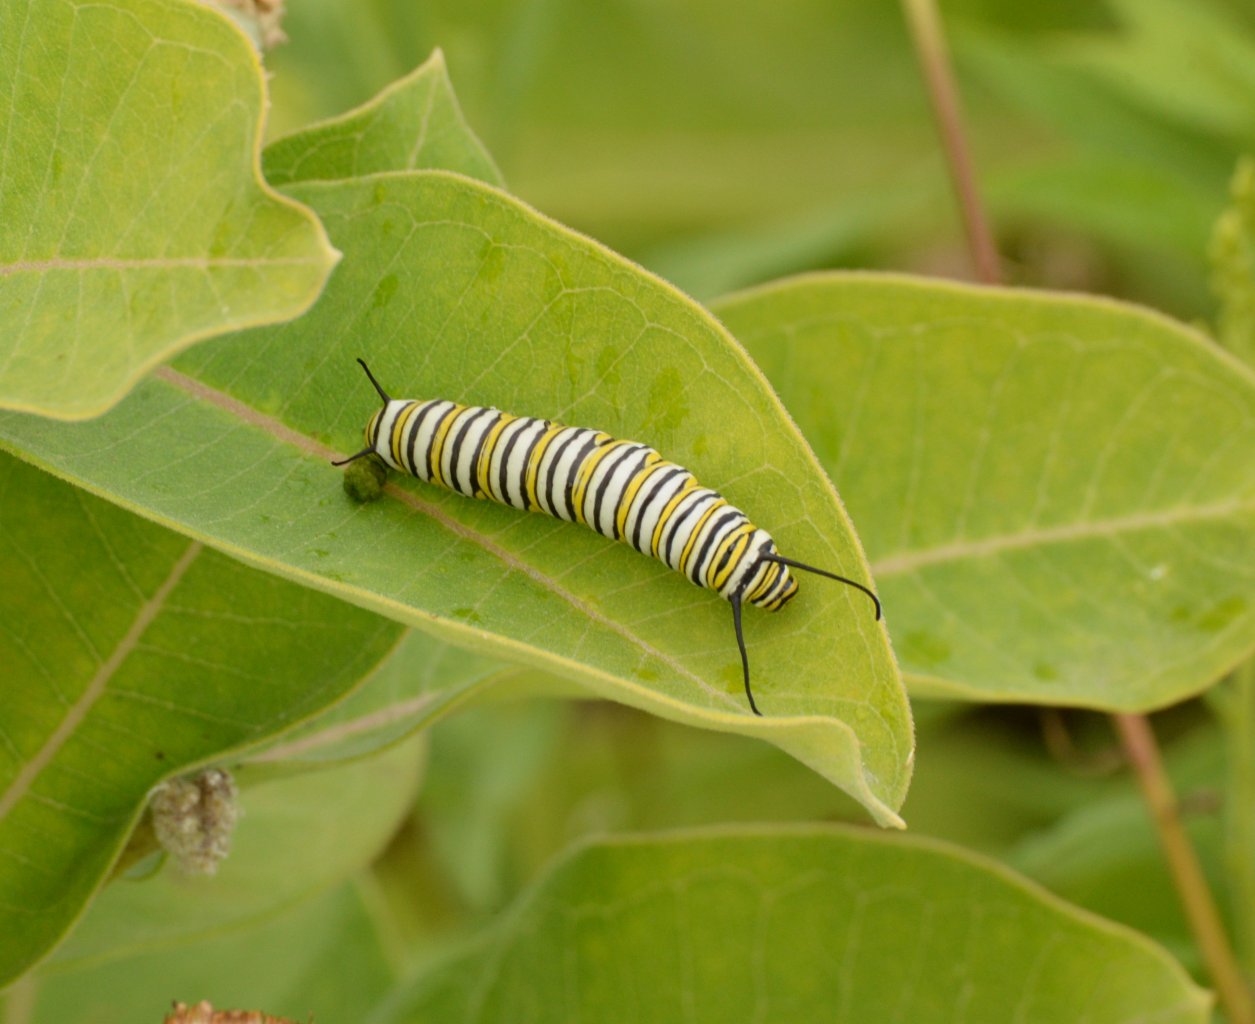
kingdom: Animalia
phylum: Arthropoda
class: Insecta
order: Lepidoptera
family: Nymphalidae
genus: Danaus
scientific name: Danaus plexippus
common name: Monarch
